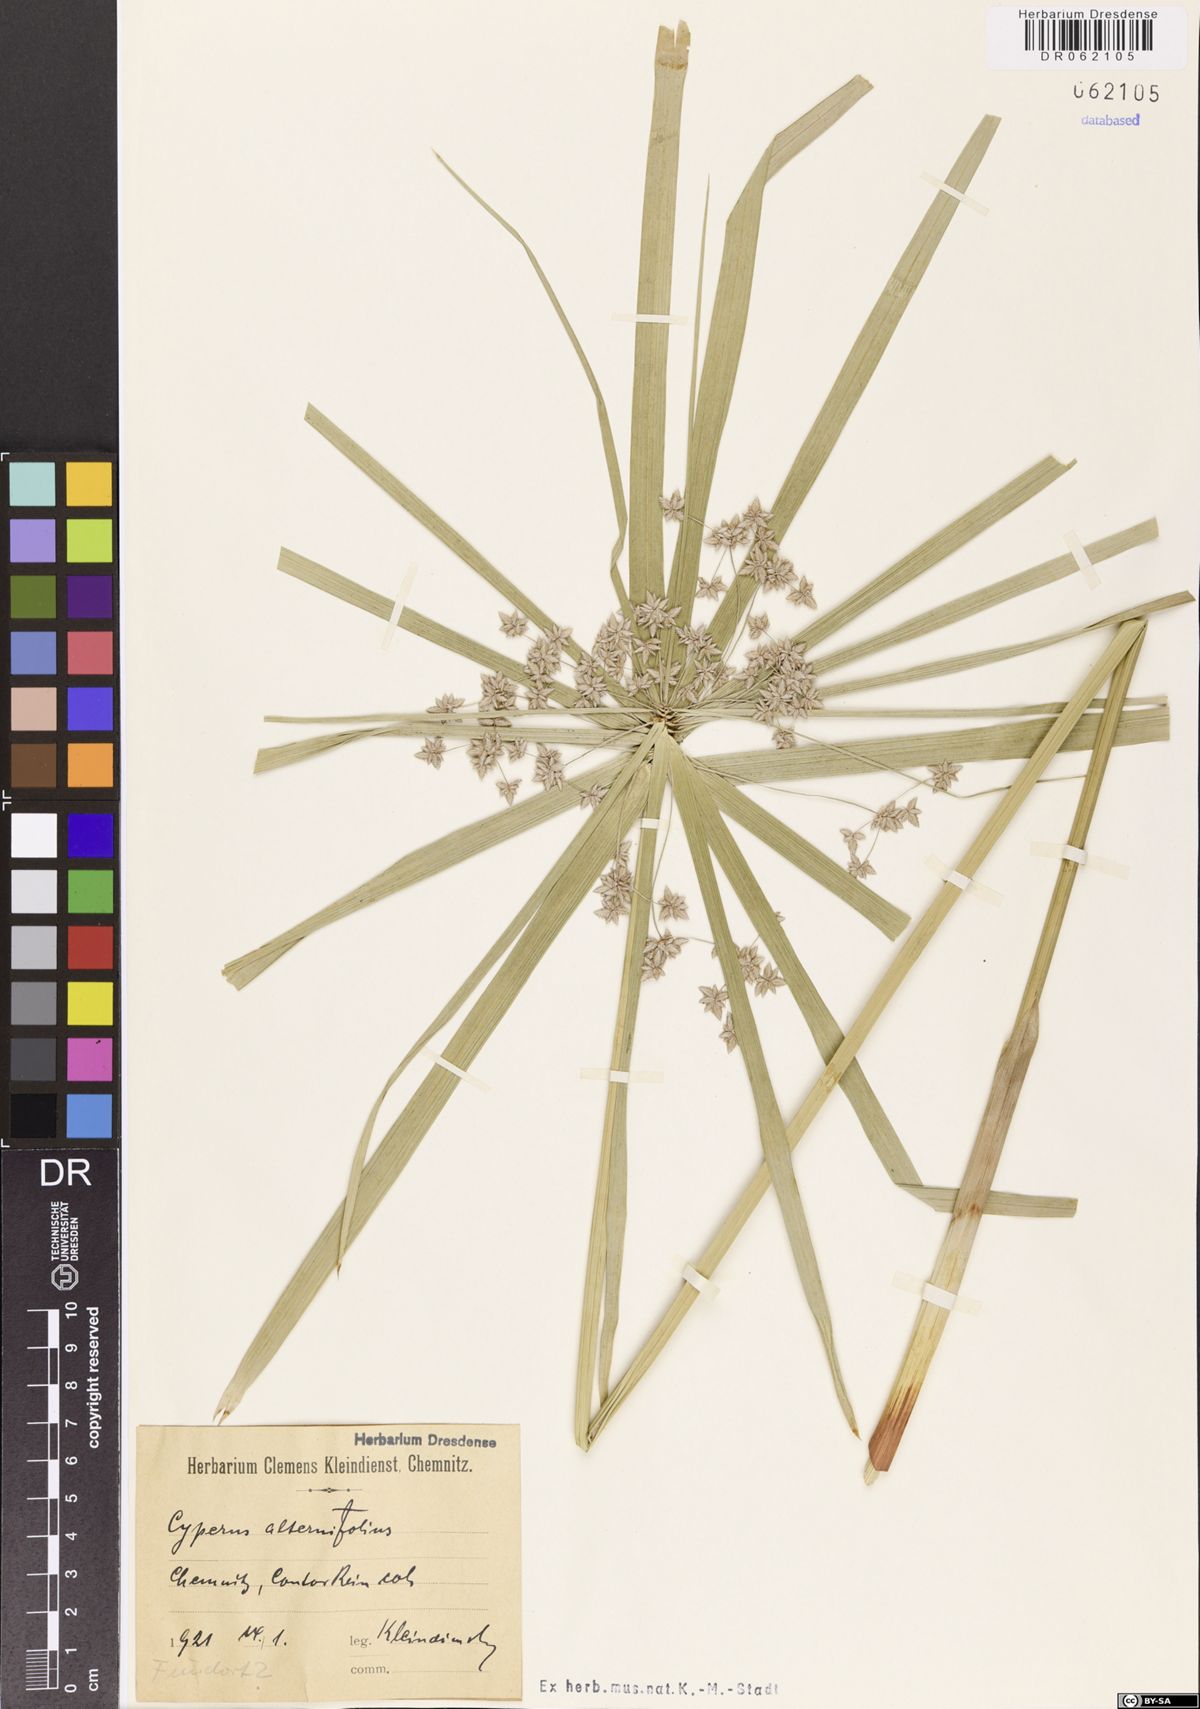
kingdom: Plantae
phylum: Tracheophyta
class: Liliopsida
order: Poales
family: Cyperaceae
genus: Cyperus
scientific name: Cyperus alternifolius
